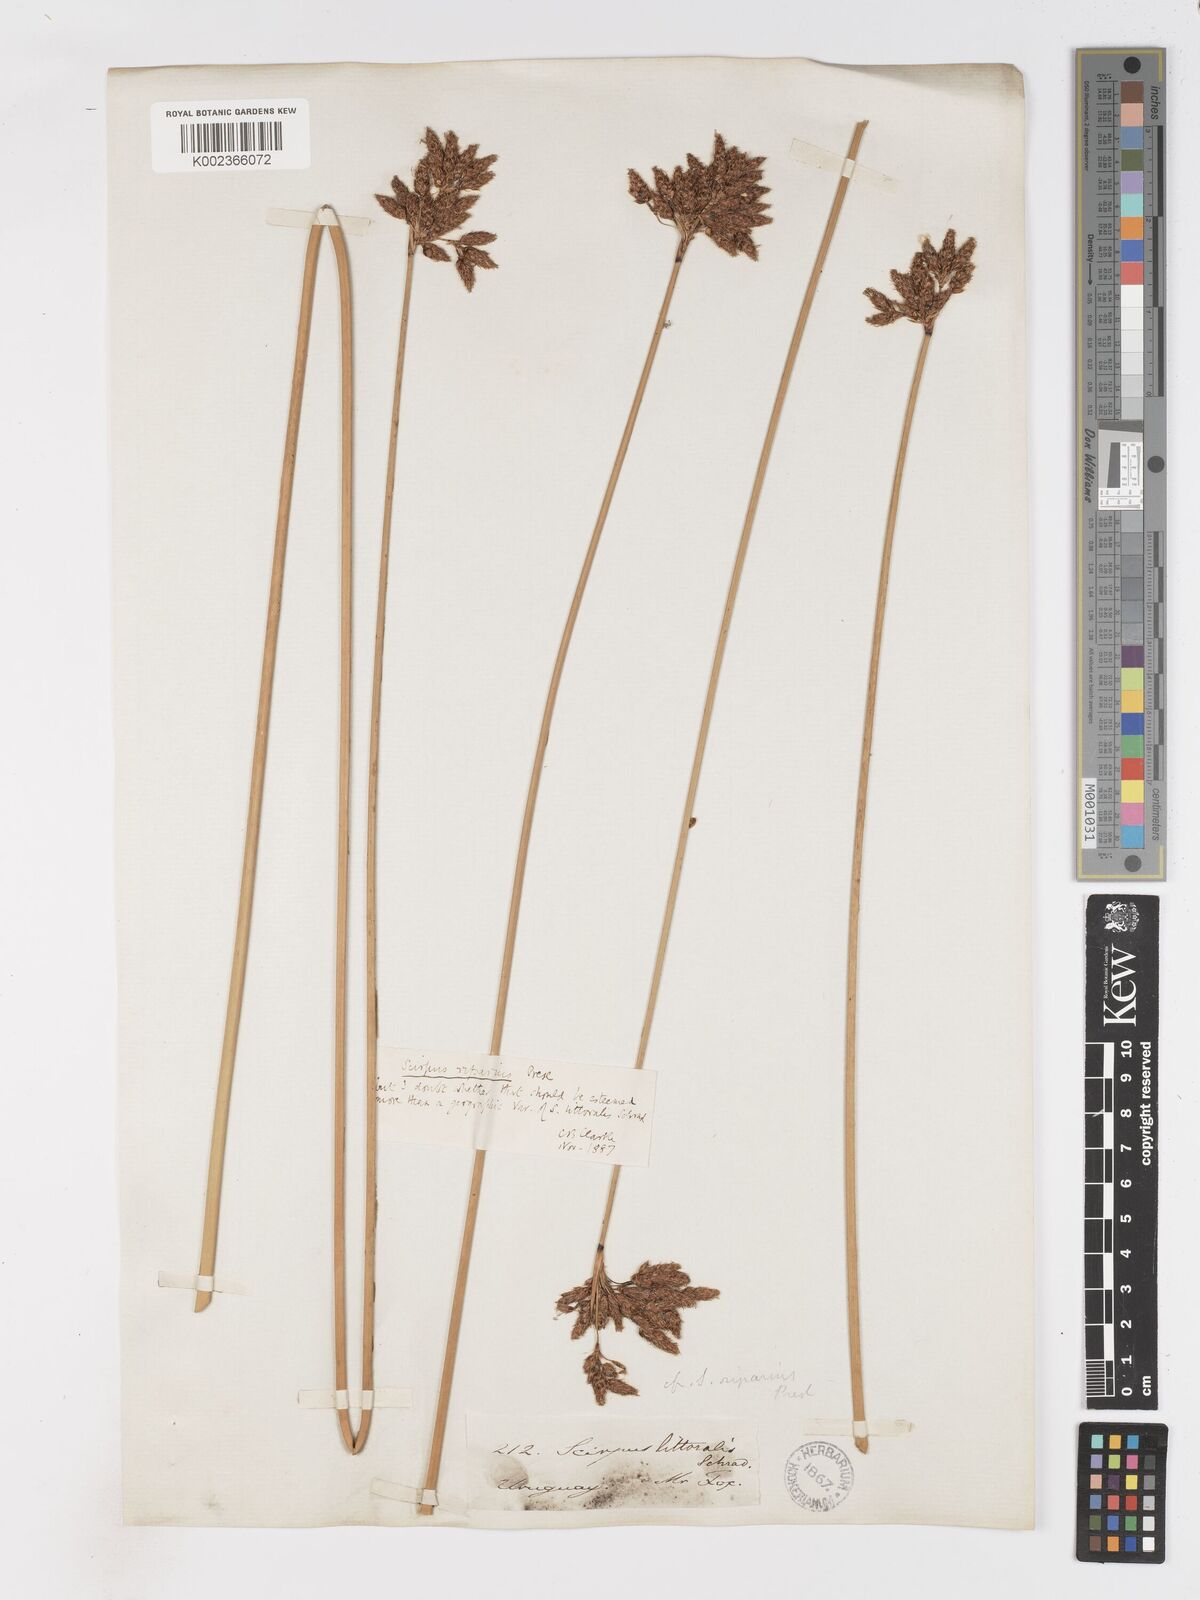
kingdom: Plantae
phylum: Tracheophyta
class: Liliopsida
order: Poales
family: Cyperaceae
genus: Schoenoplectus
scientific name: Schoenoplectus californicus
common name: California bulrush
